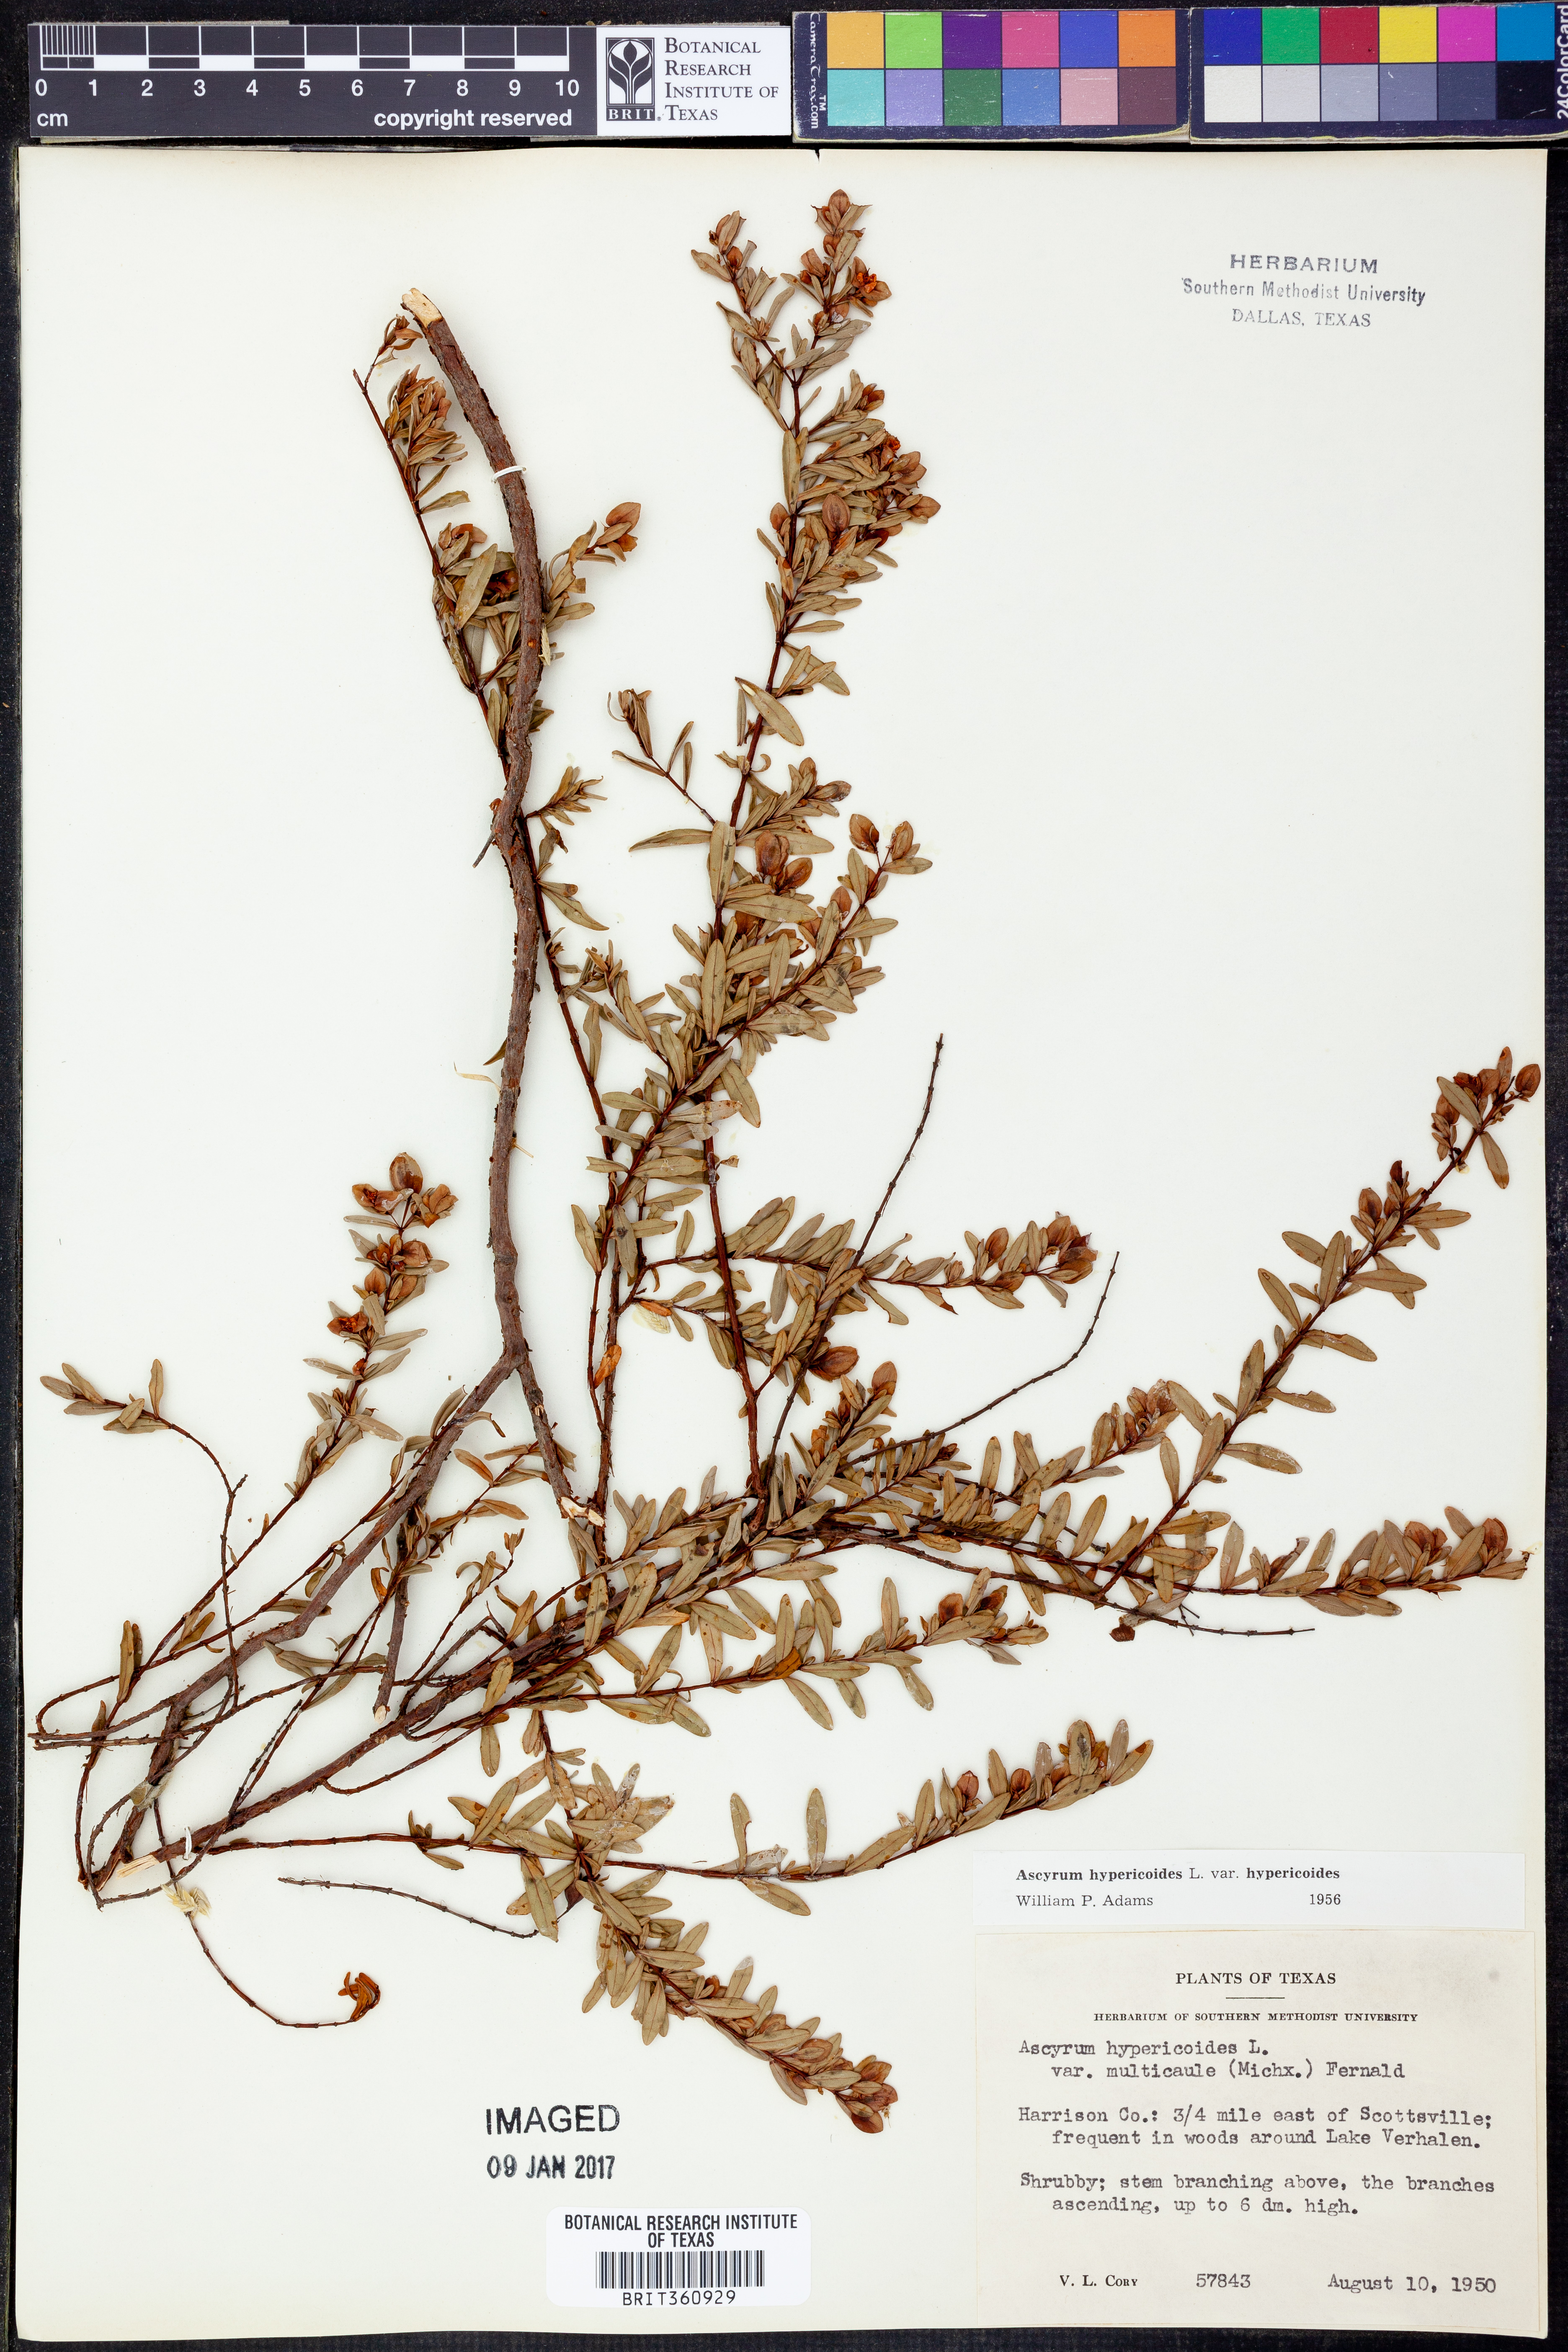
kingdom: Plantae
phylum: Tracheophyta
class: Magnoliopsida
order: Malpighiales
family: Hypericaceae
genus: Hypericum
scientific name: Hypericum hypericoides
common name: St. andrew's cross
